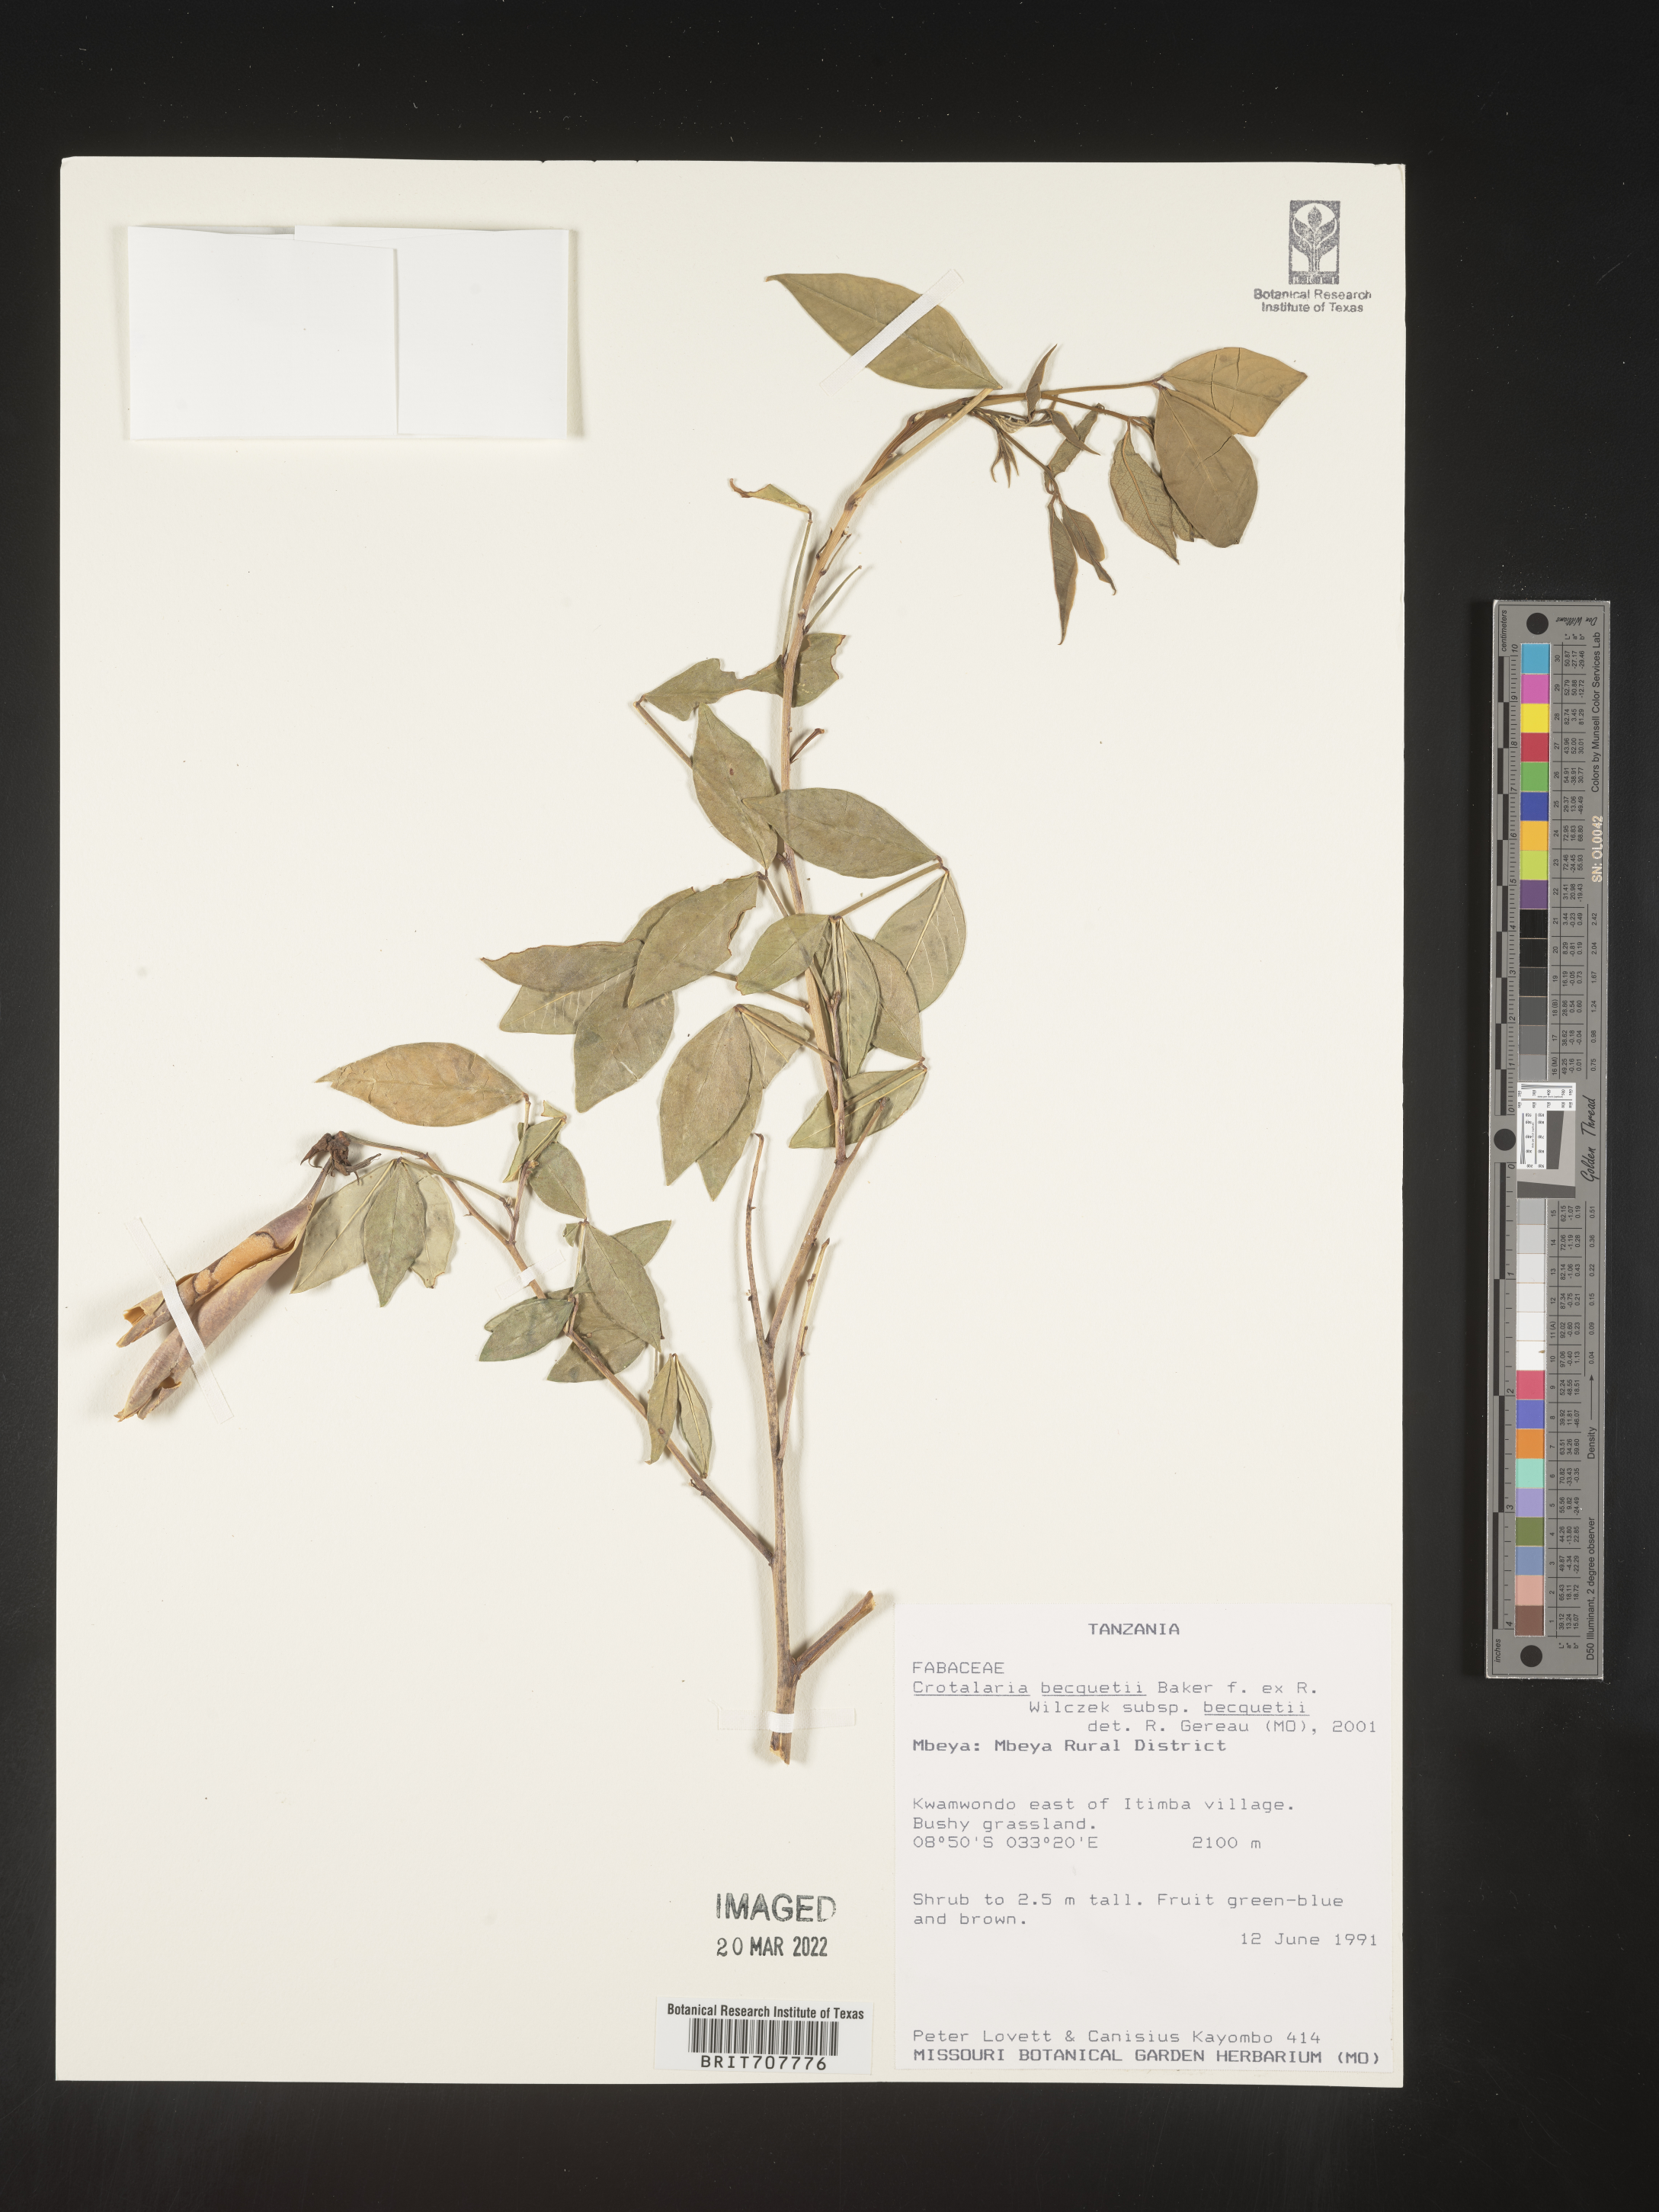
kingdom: Plantae
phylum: Tracheophyta
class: Magnoliopsida
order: Fabales
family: Fabaceae
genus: Crotalaria
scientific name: Crotalaria
